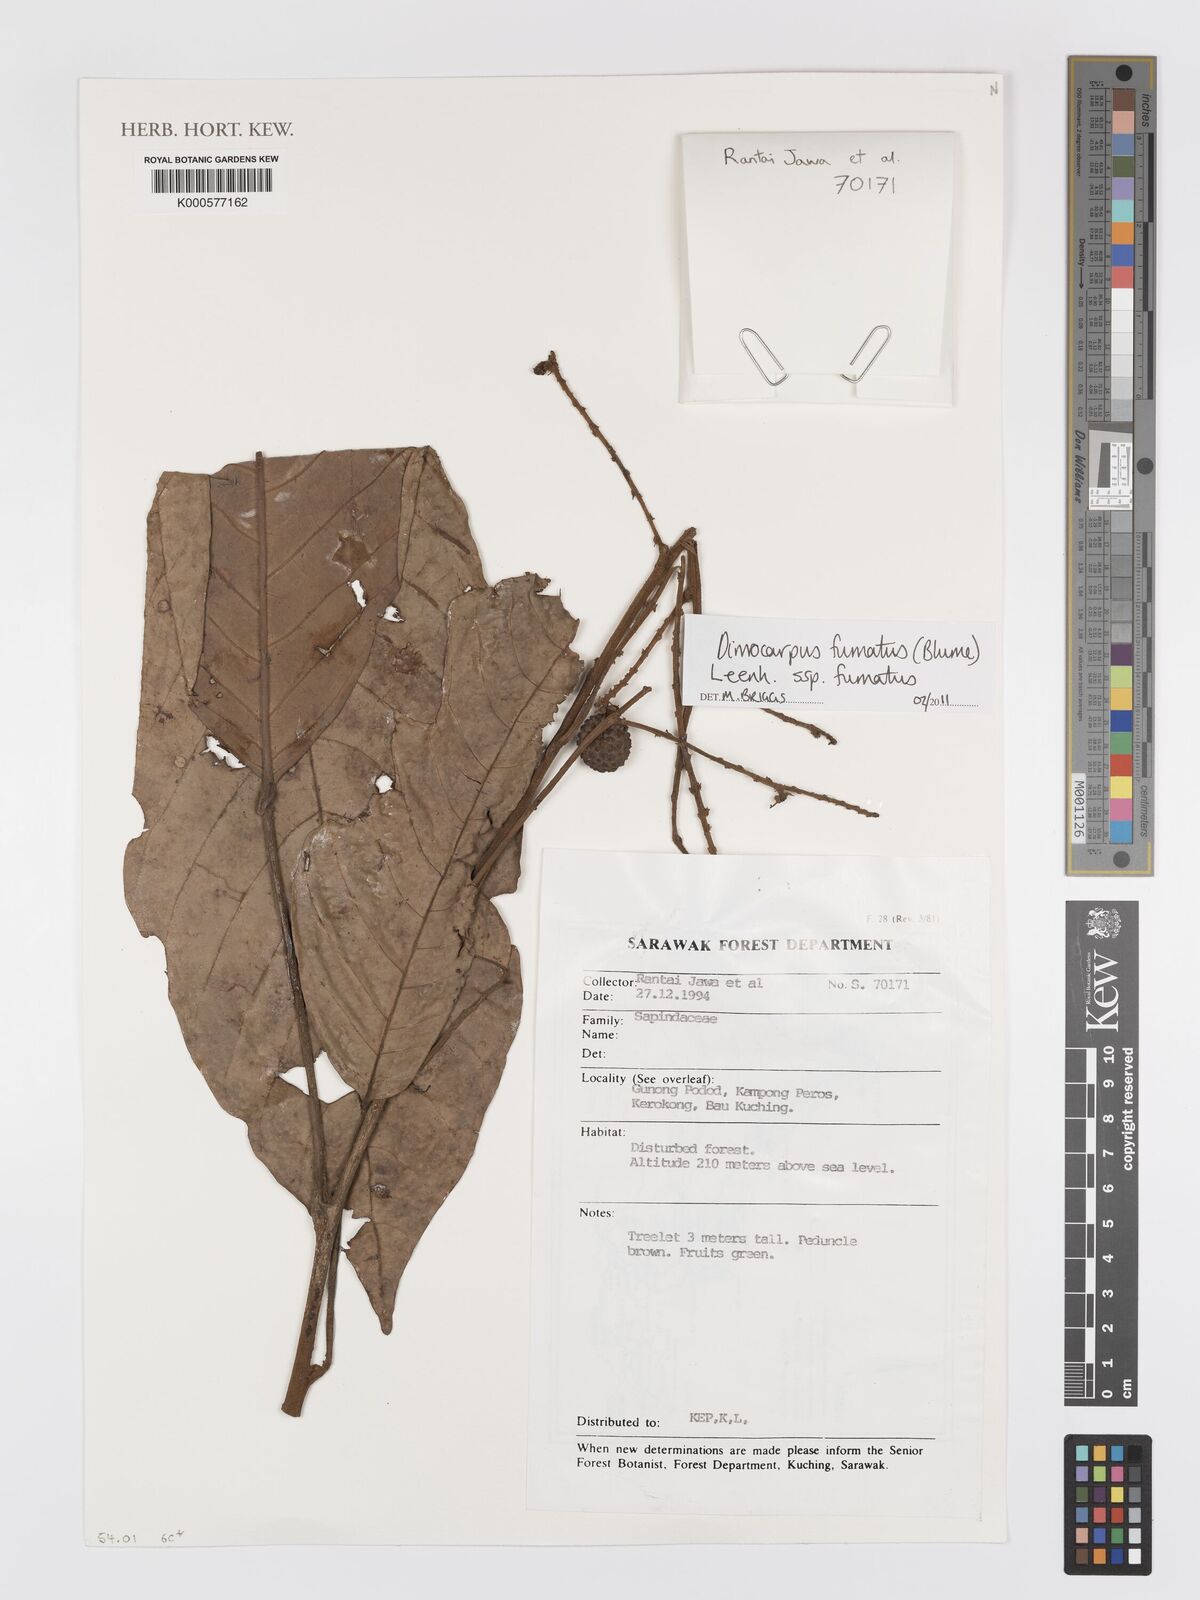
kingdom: Plantae
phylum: Tracheophyta
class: Magnoliopsida
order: Sapindales
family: Sapindaceae
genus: Dimocarpus
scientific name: Dimocarpus fumatus
